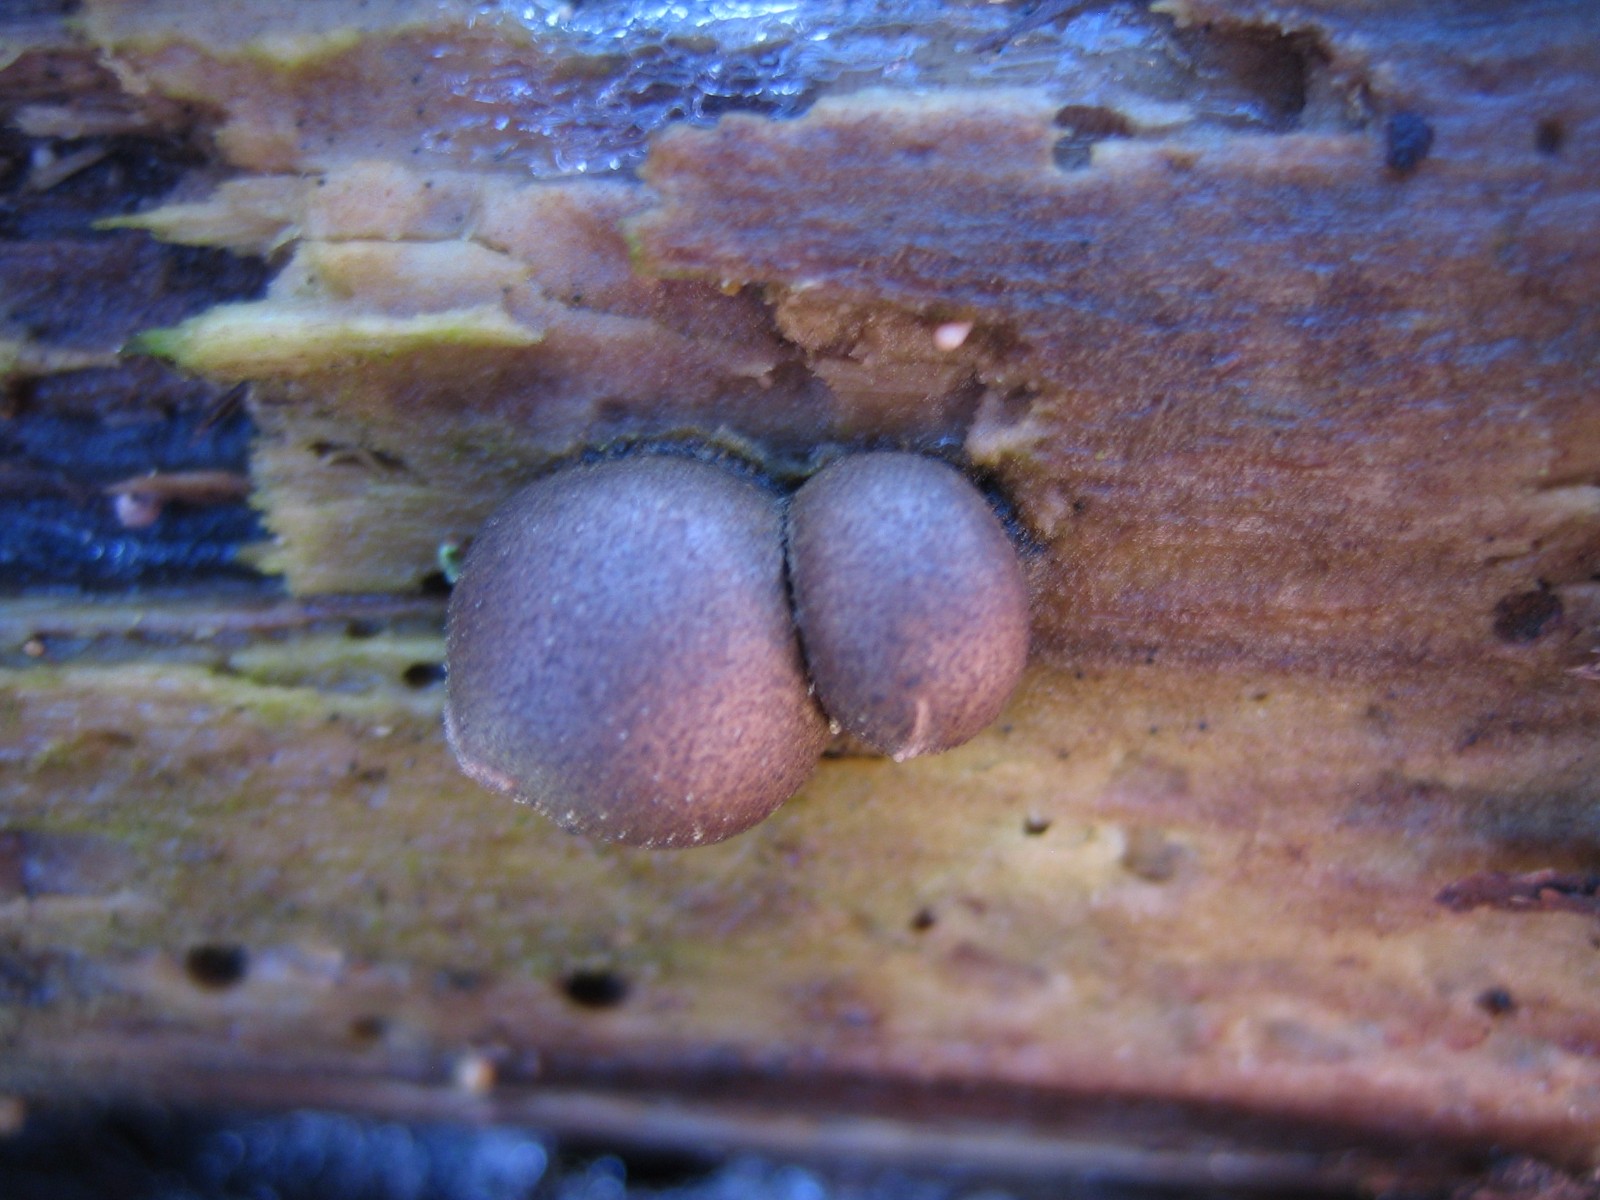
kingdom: Protozoa
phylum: Mycetozoa
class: Myxomycetes
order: Cribrariales
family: Tubiferaceae
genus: Lycogala
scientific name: Lycogala epidendrum
